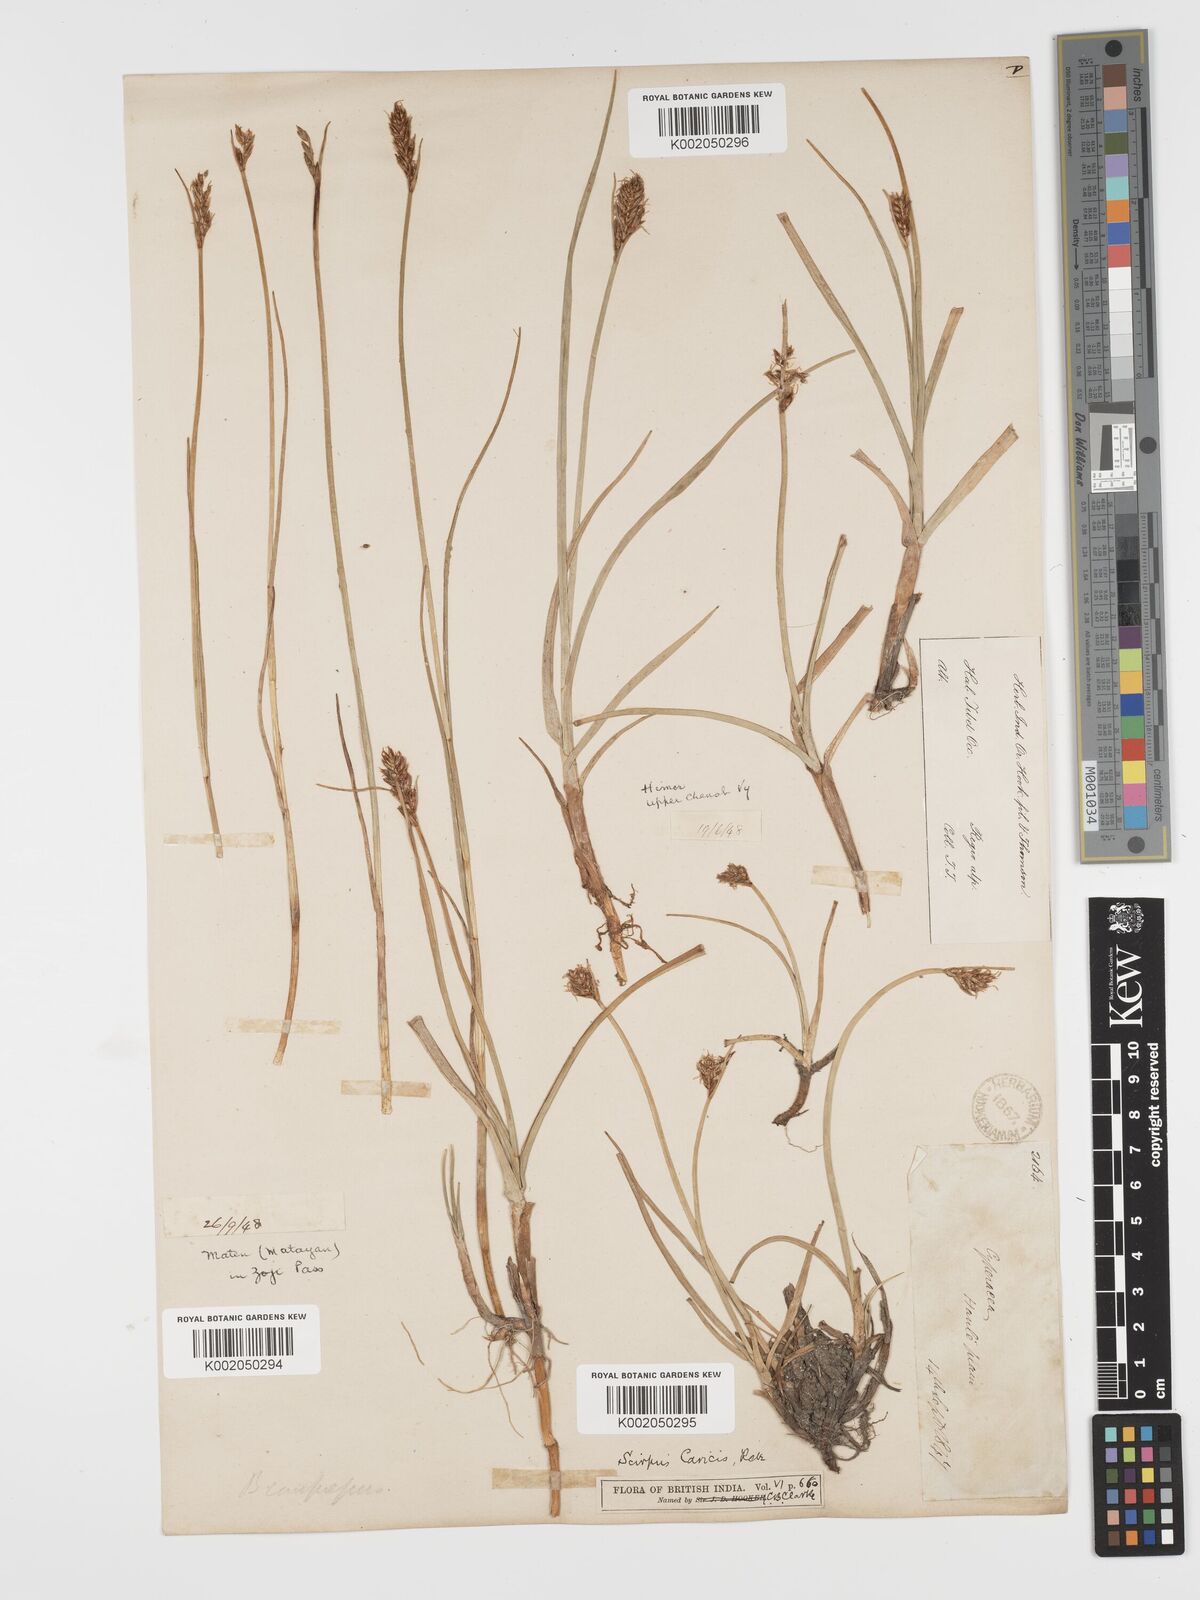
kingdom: Plantae
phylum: Tracheophyta
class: Liliopsida
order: Poales
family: Cyperaceae
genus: Blysmus
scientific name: Blysmus compressus
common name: Flat-sedge
